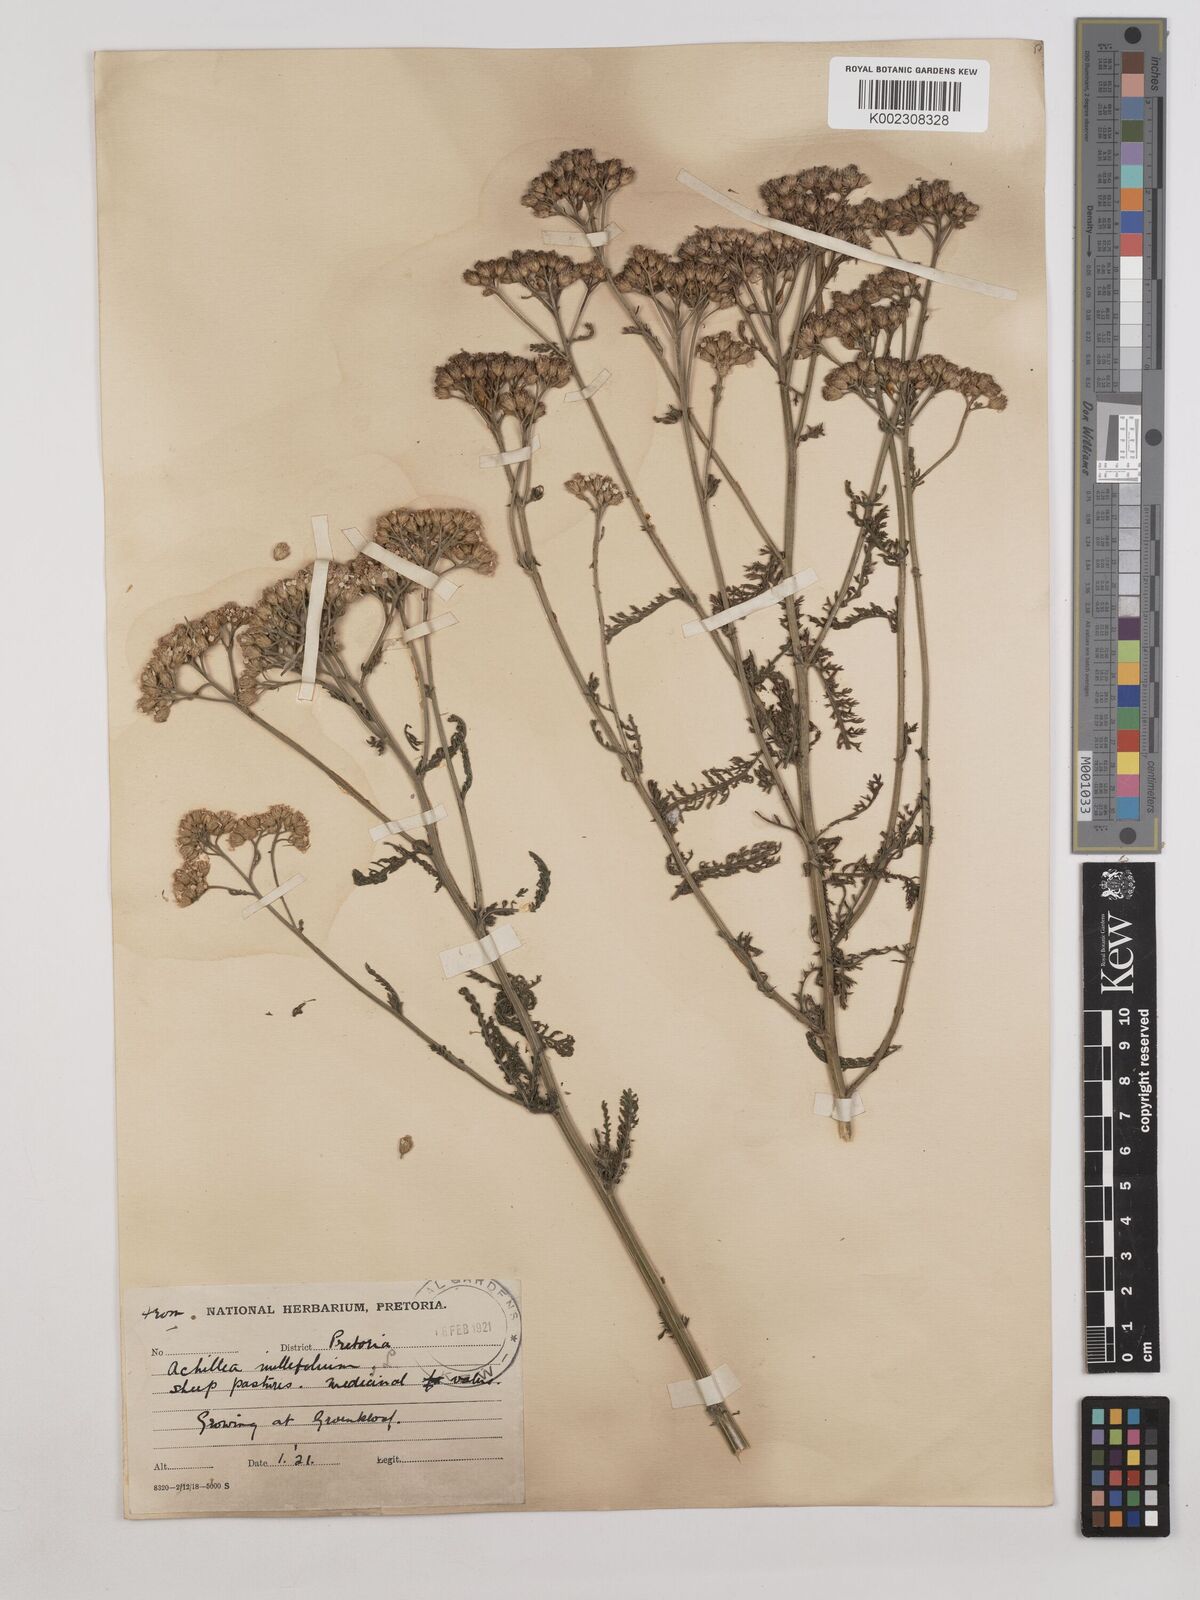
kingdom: Plantae
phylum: Tracheophyta
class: Magnoliopsida
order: Asterales
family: Asteraceae
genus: Achillea
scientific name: Achillea millefolium
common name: Yarrow
